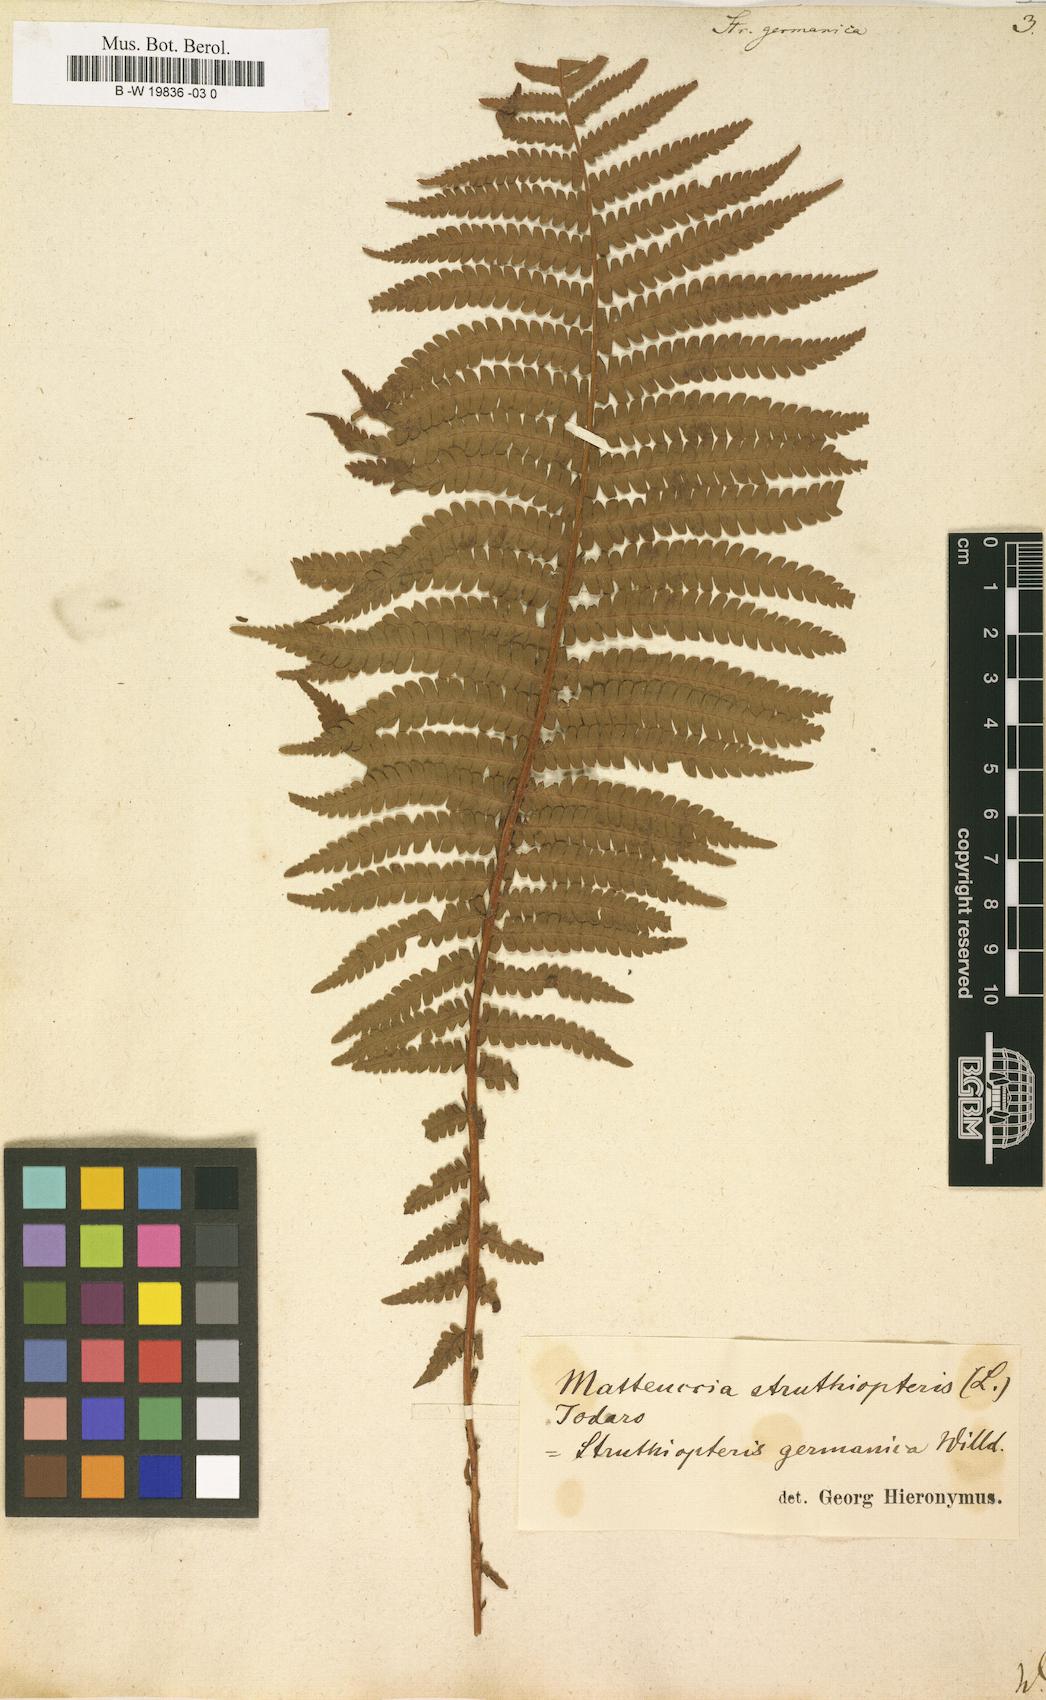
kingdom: Plantae
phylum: Tracheophyta
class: Polypodiopsida
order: Polypodiales
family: Onocleaceae
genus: Matteuccia
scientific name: Matteuccia struthiopteris
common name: Ostrich fern
